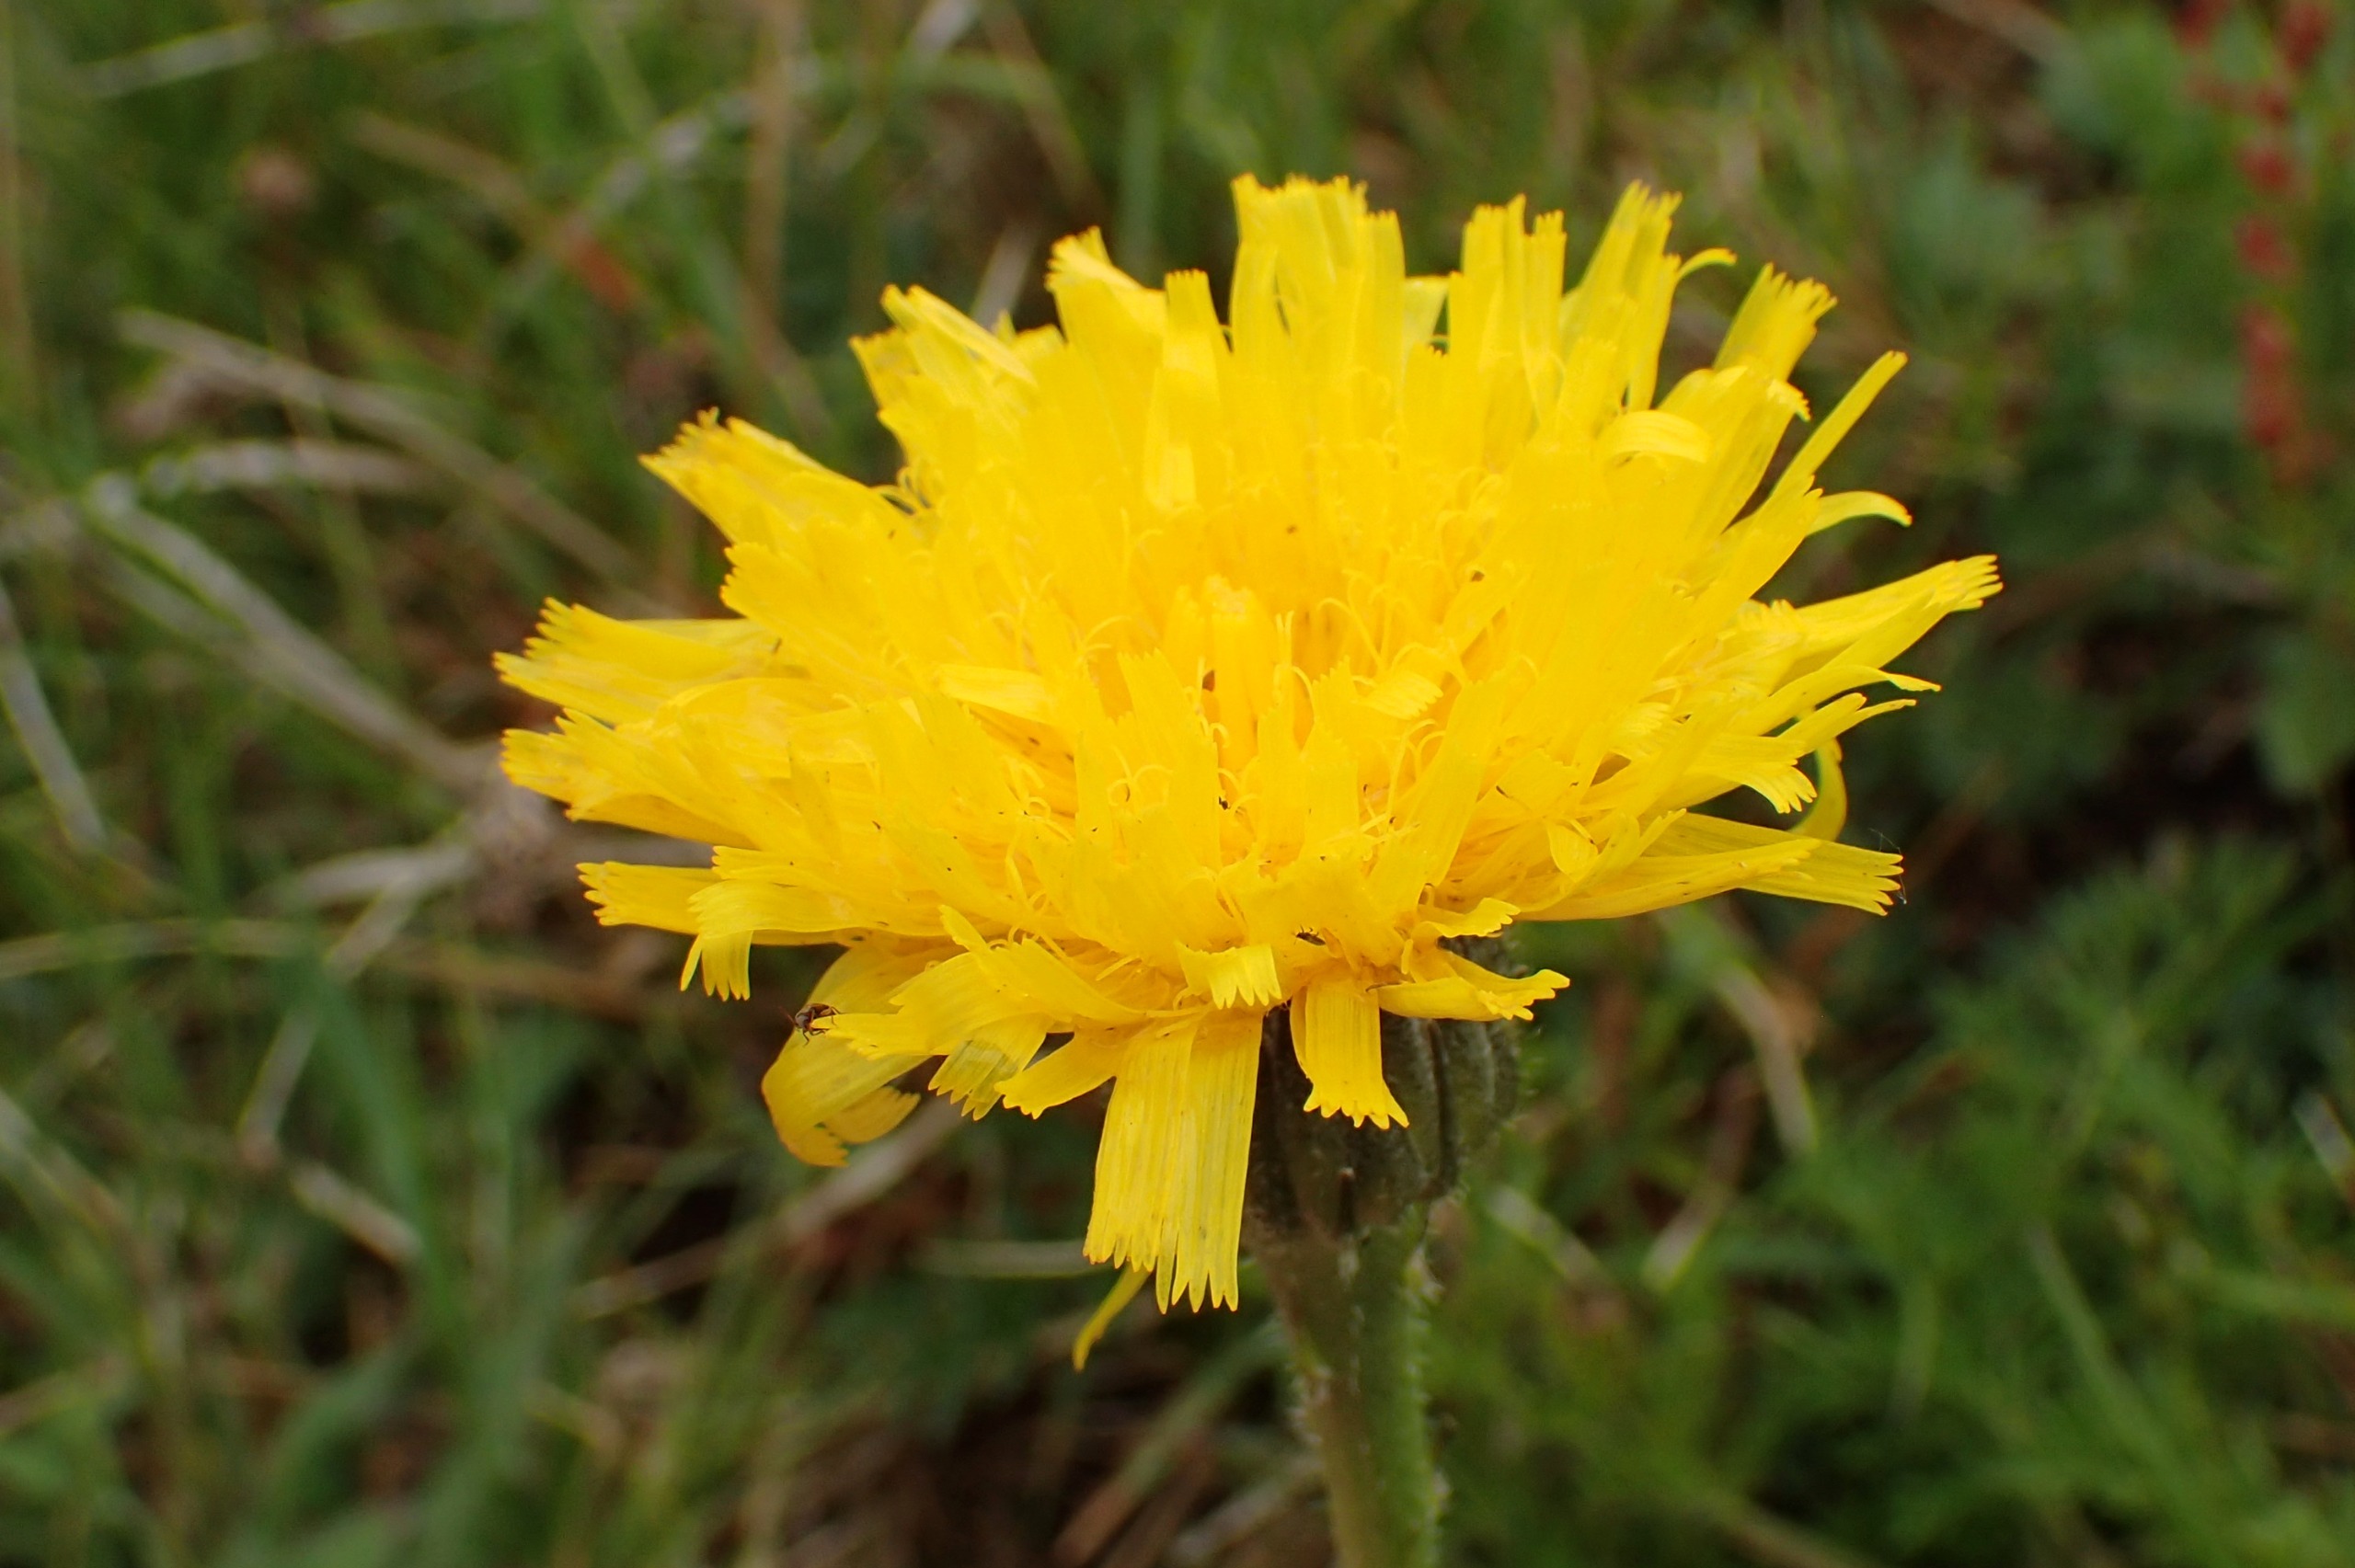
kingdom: Plantae
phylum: Tracheophyta
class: Magnoliopsida
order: Asterales
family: Asteraceae
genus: Trommsdorffia
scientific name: Trommsdorffia maculata
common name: Plettet kongepen
